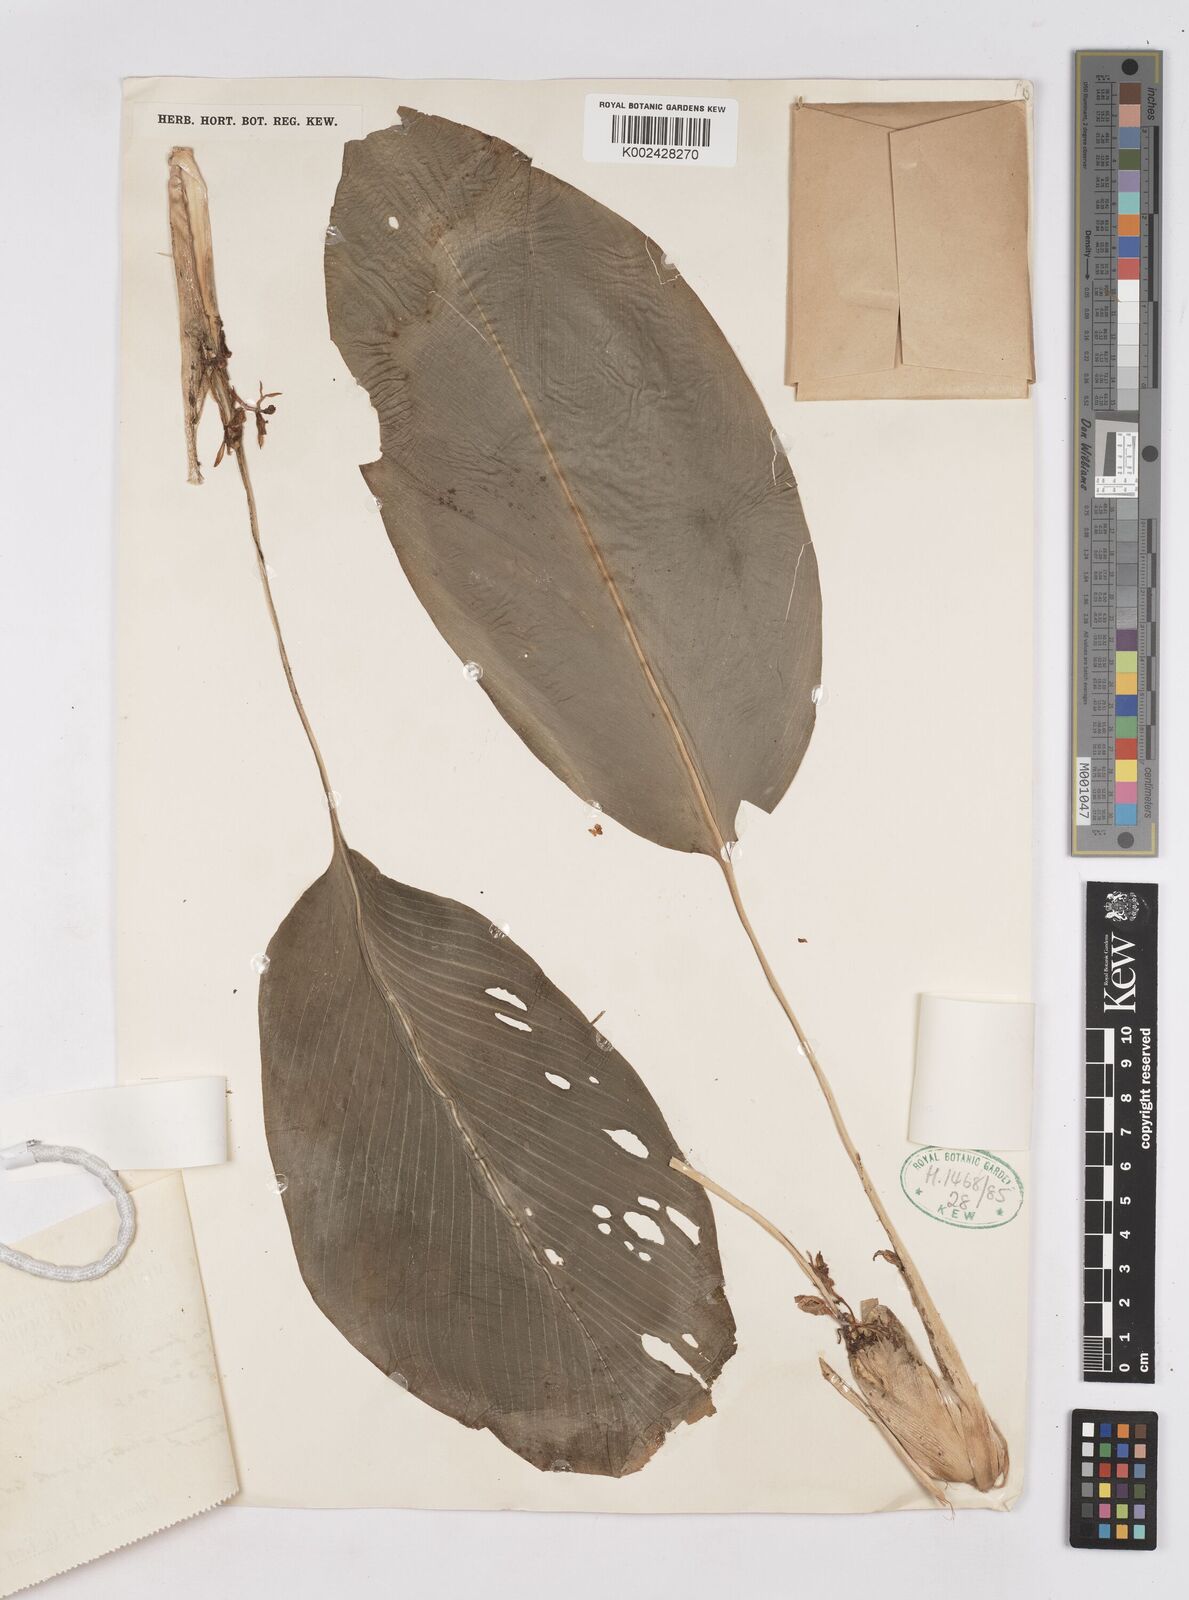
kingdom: Plantae
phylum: Tracheophyta
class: Liliopsida
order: Zingiberales
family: Zingiberaceae
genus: Boesenbergia
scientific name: Boesenbergia curtisii
